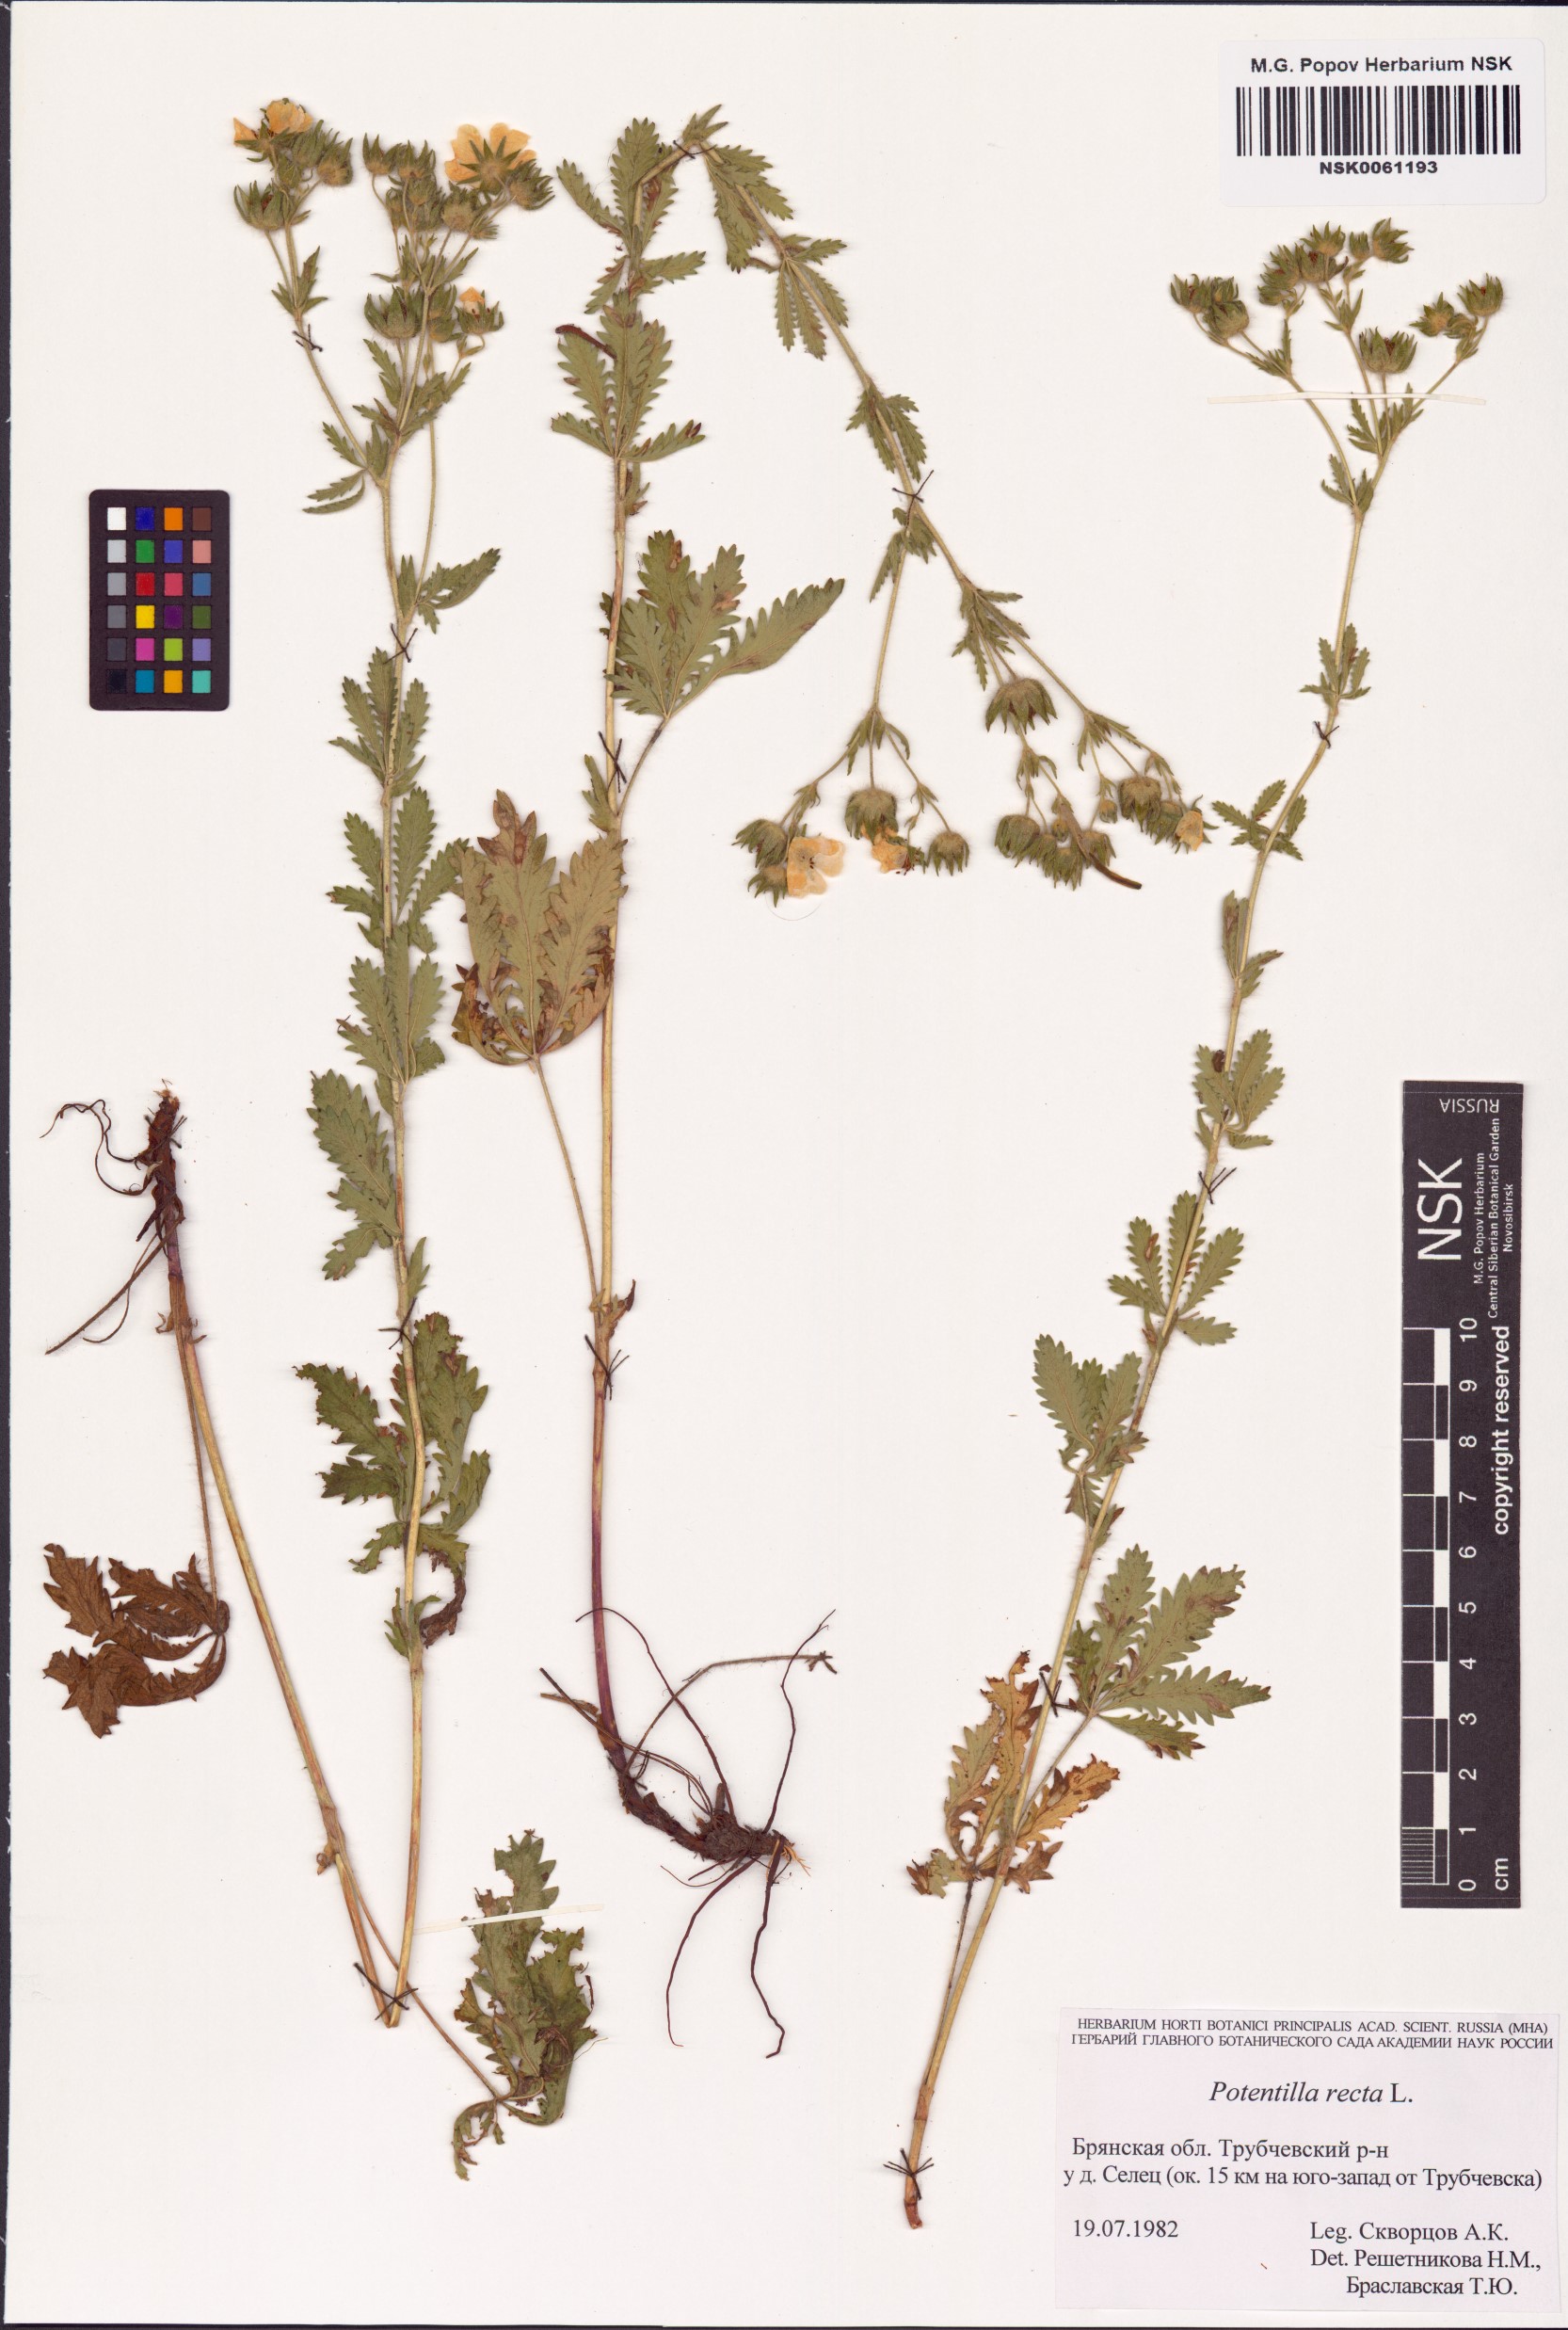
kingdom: Plantae
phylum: Tracheophyta
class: Magnoliopsida
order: Rosales
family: Rosaceae
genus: Potentilla
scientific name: Potentilla recta
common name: Sulphur cinquefoil
